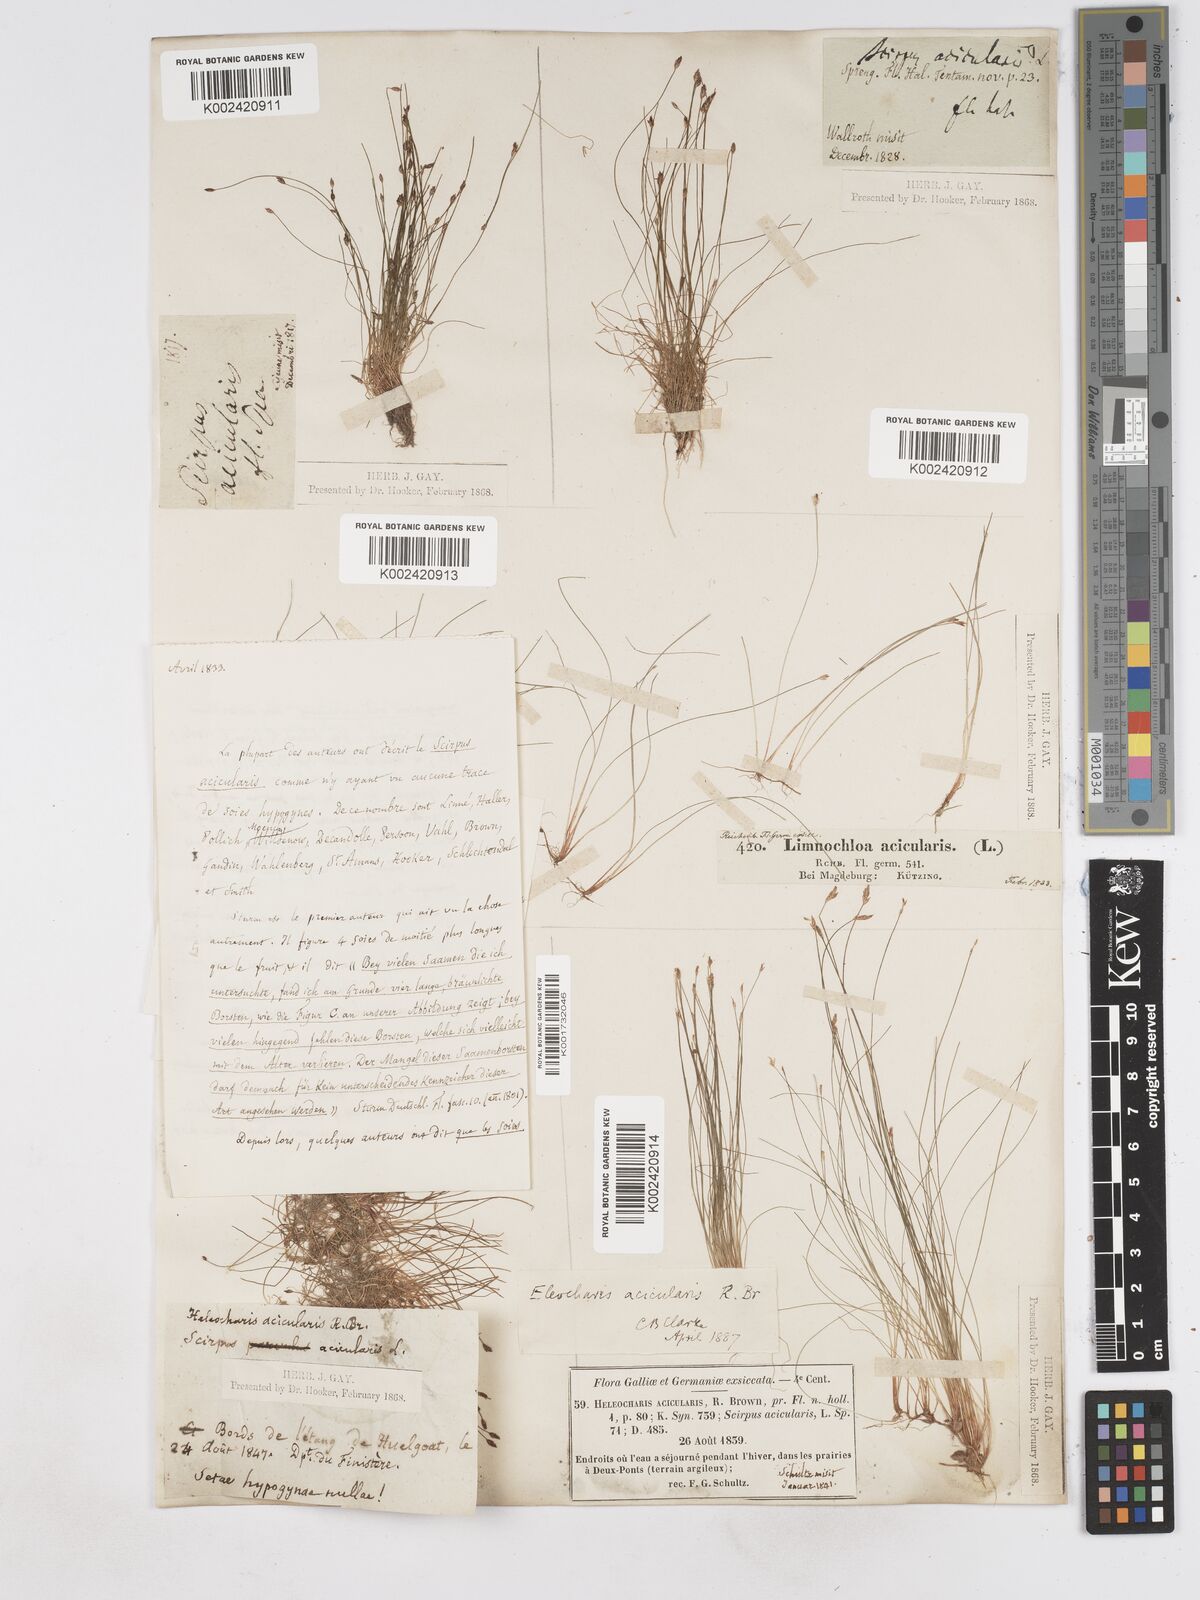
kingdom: Plantae
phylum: Tracheophyta
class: Liliopsida
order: Poales
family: Cyperaceae
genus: Eleocharis
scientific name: Eleocharis acicularis
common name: Needle spike-rush
